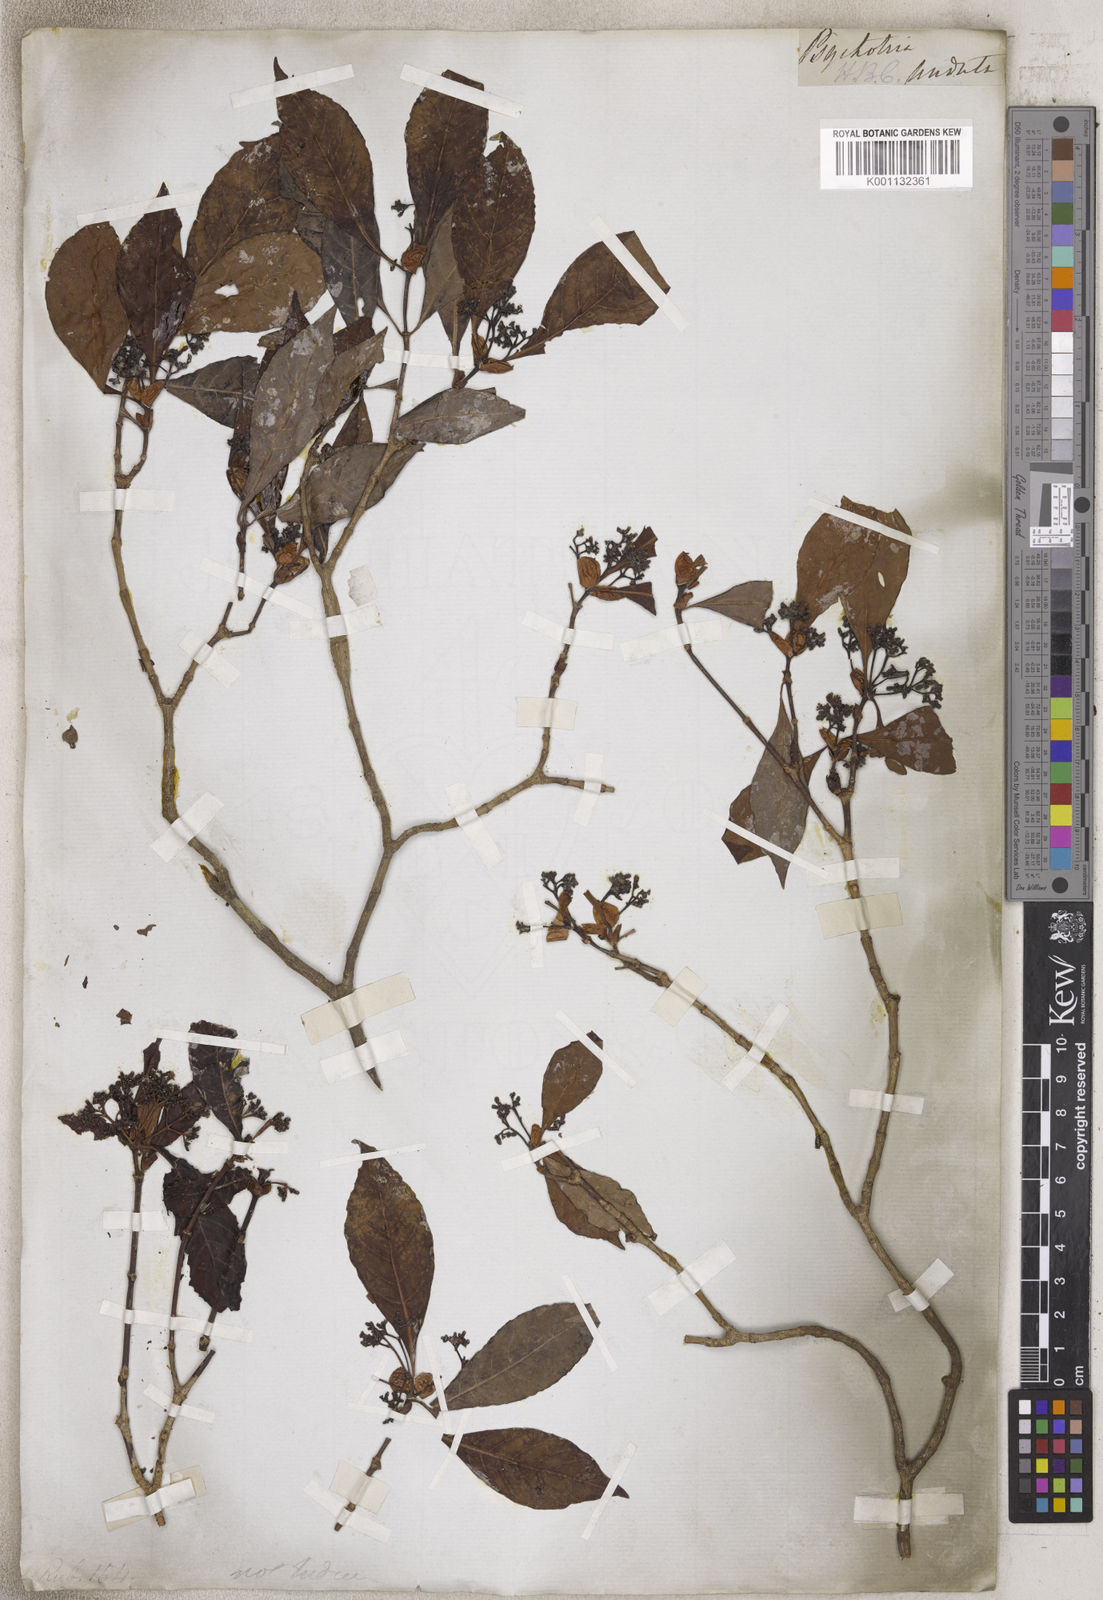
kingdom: Plantae
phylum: Tracheophyta
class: Magnoliopsida
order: Gentianales
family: Rubiaceae
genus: Psychotria
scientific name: Psychotria
